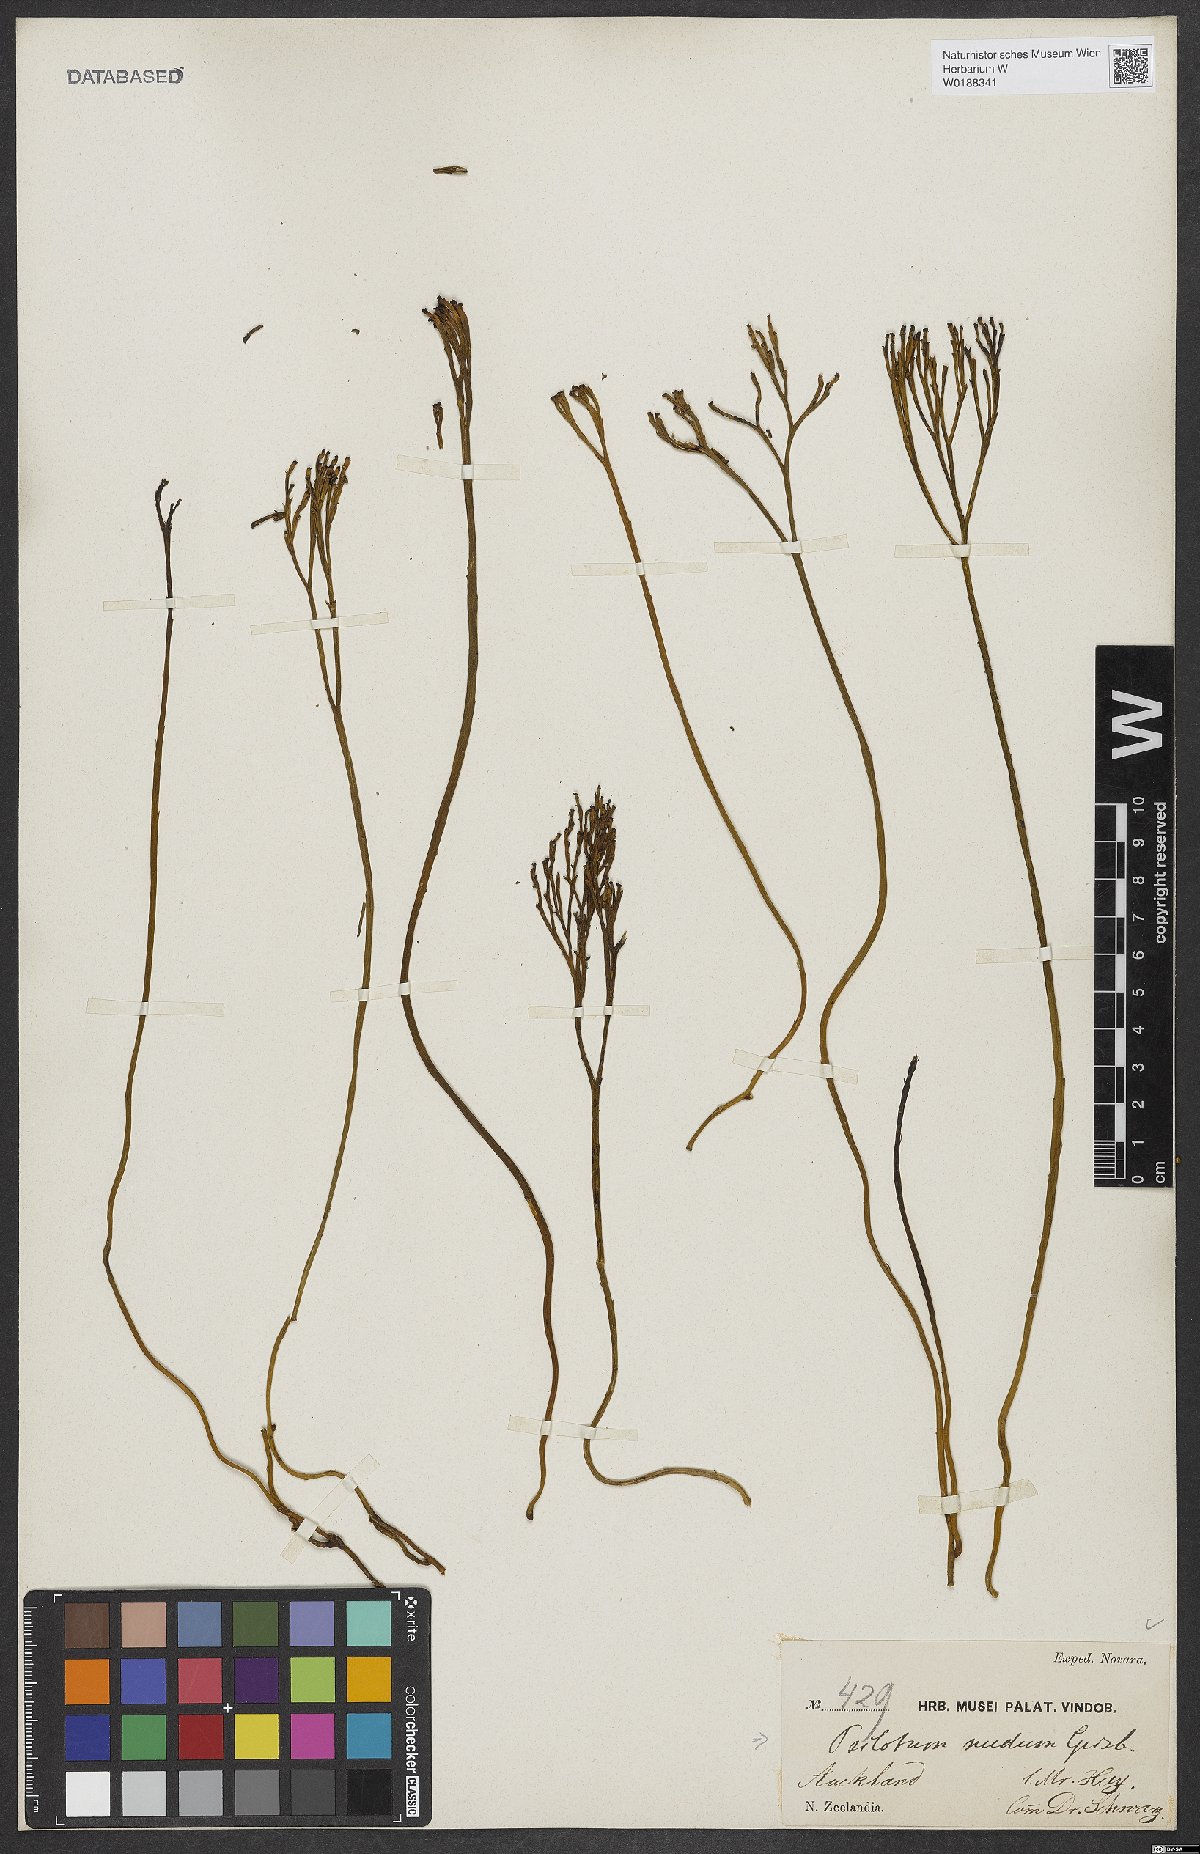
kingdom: Plantae
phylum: Tracheophyta
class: Polypodiopsida
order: Psilotales
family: Psilotaceae
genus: Psilotum
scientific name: Psilotum nudum
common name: Skeleton fork fern
